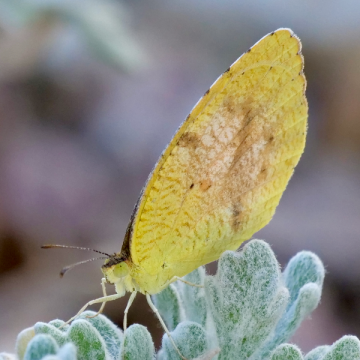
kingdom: Animalia
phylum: Arthropoda
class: Insecta
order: Lepidoptera
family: Pieridae
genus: Abaeis
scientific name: Abaeis nicippe
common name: Sleepy Orange
